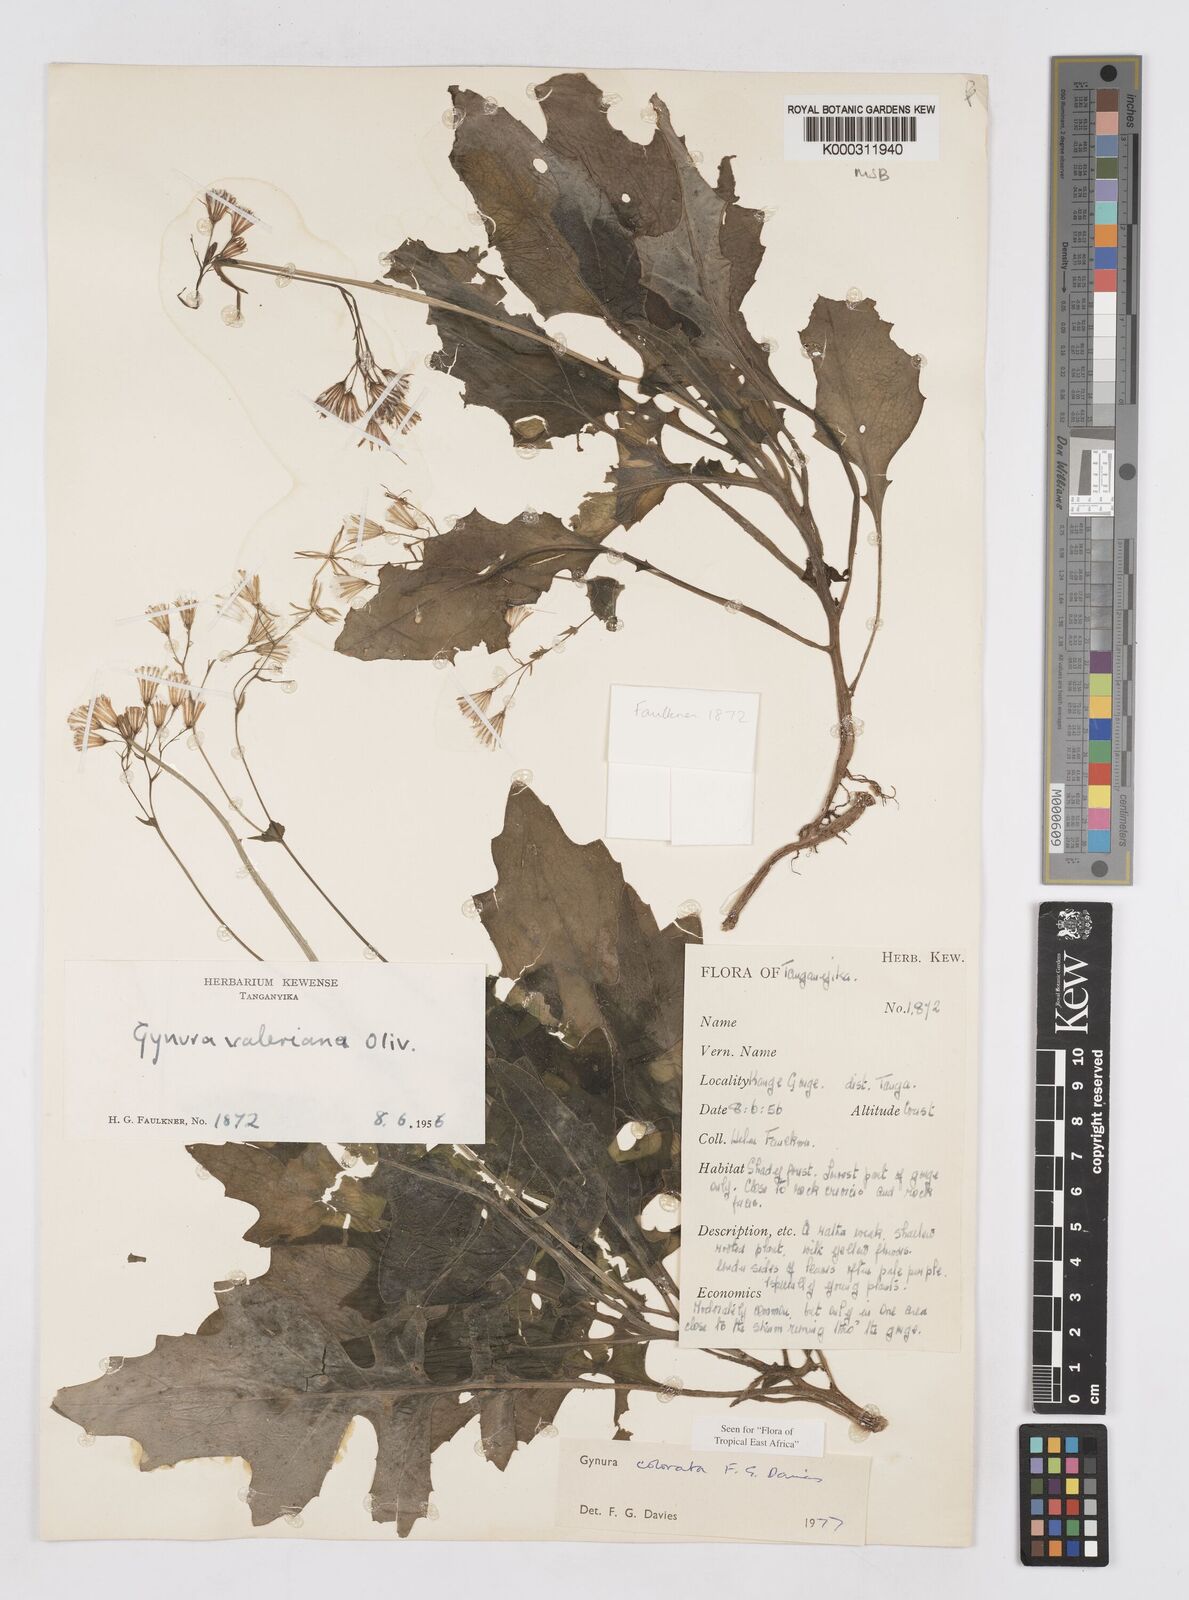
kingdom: Plantae
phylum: Tracheophyta
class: Magnoliopsida
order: Asterales
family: Asteraceae
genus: Gynura
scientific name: Gynura colorata
